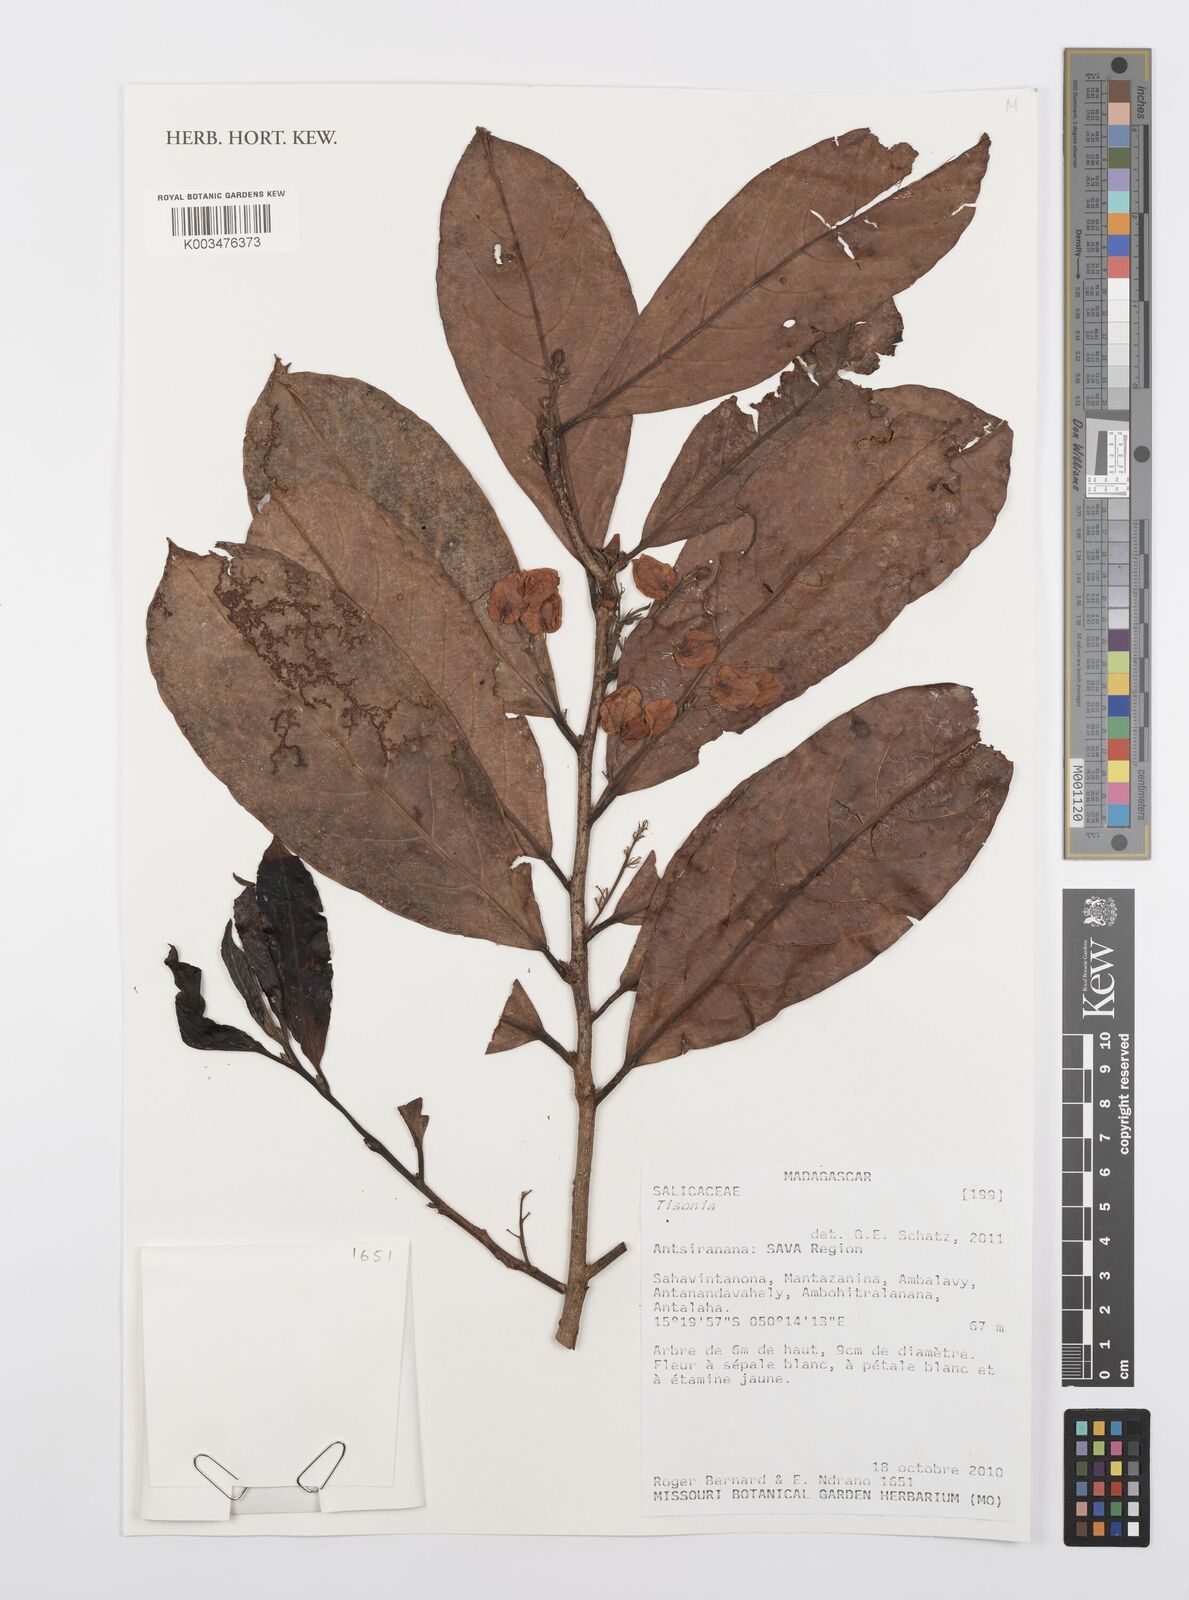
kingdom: Plantae
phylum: Tracheophyta
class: Magnoliopsida
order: Malpighiales
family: Salicaceae
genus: Tisonia
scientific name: Tisonia
